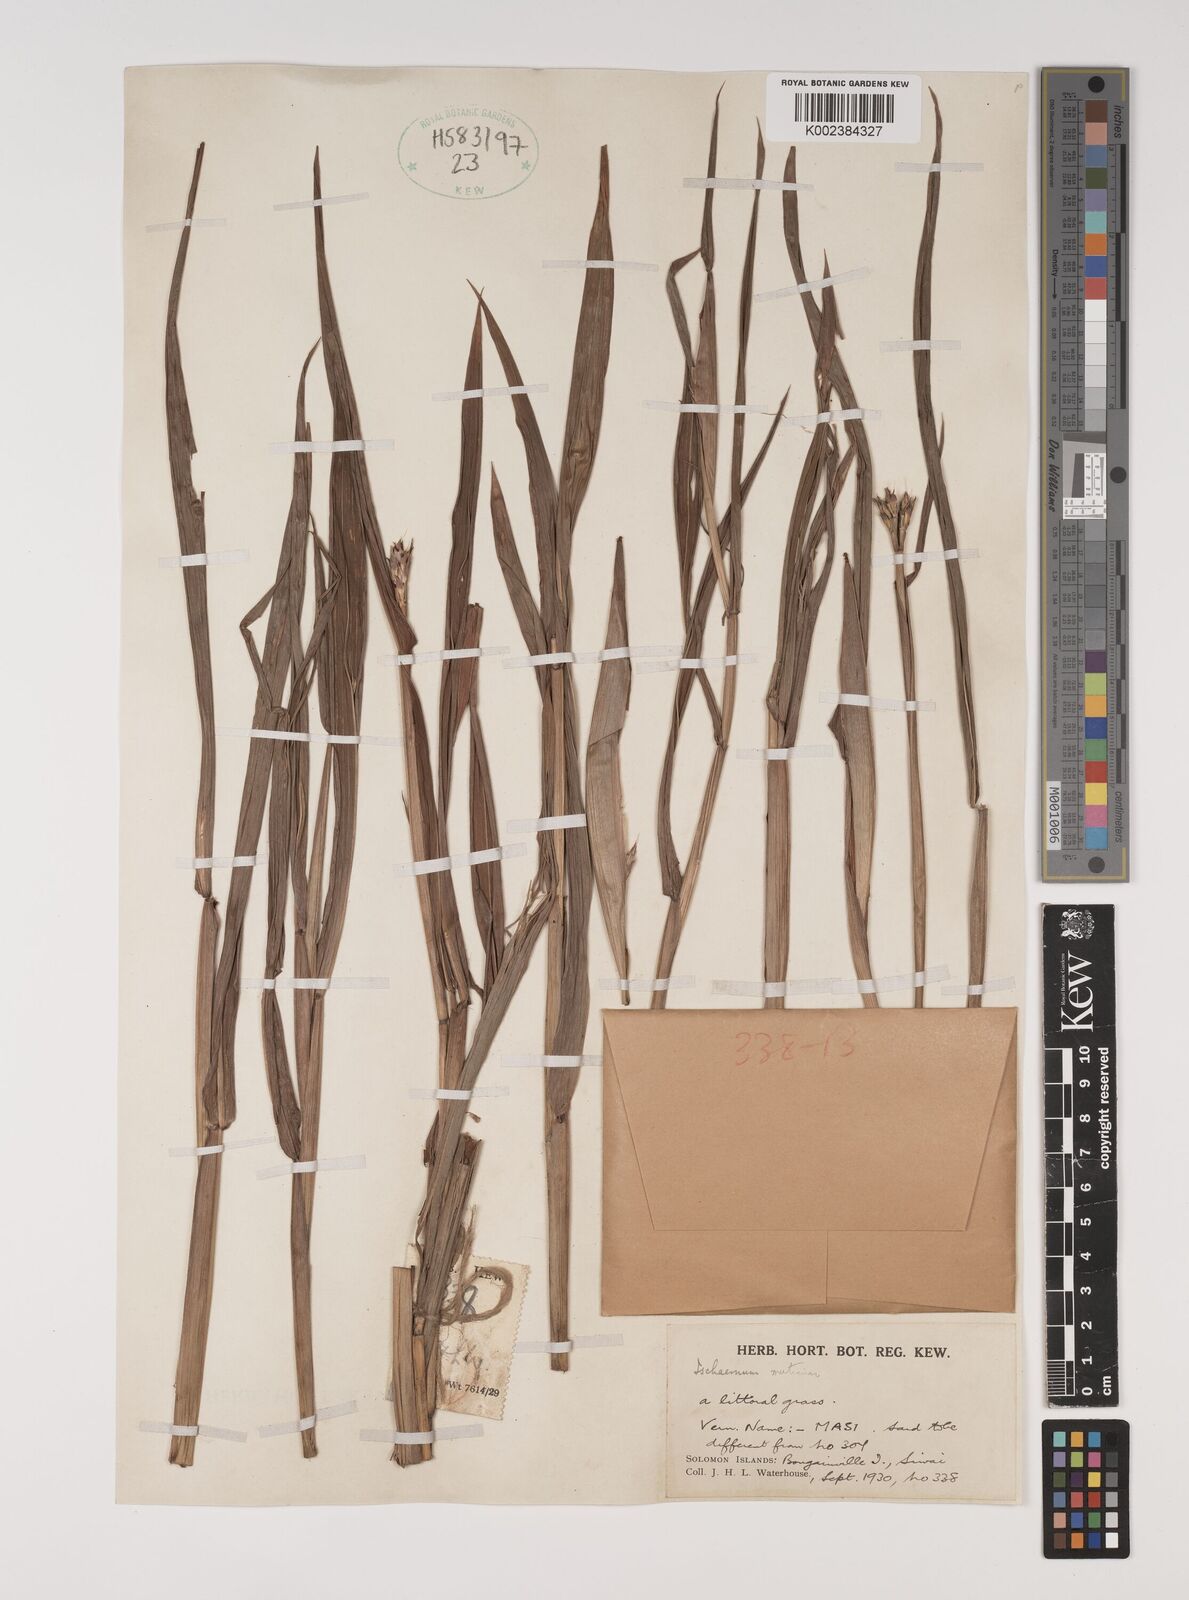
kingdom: Plantae
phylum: Tracheophyta
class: Liliopsida
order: Poales
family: Poaceae
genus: Ischaemum
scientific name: Ischaemum muticum
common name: Drought grass
